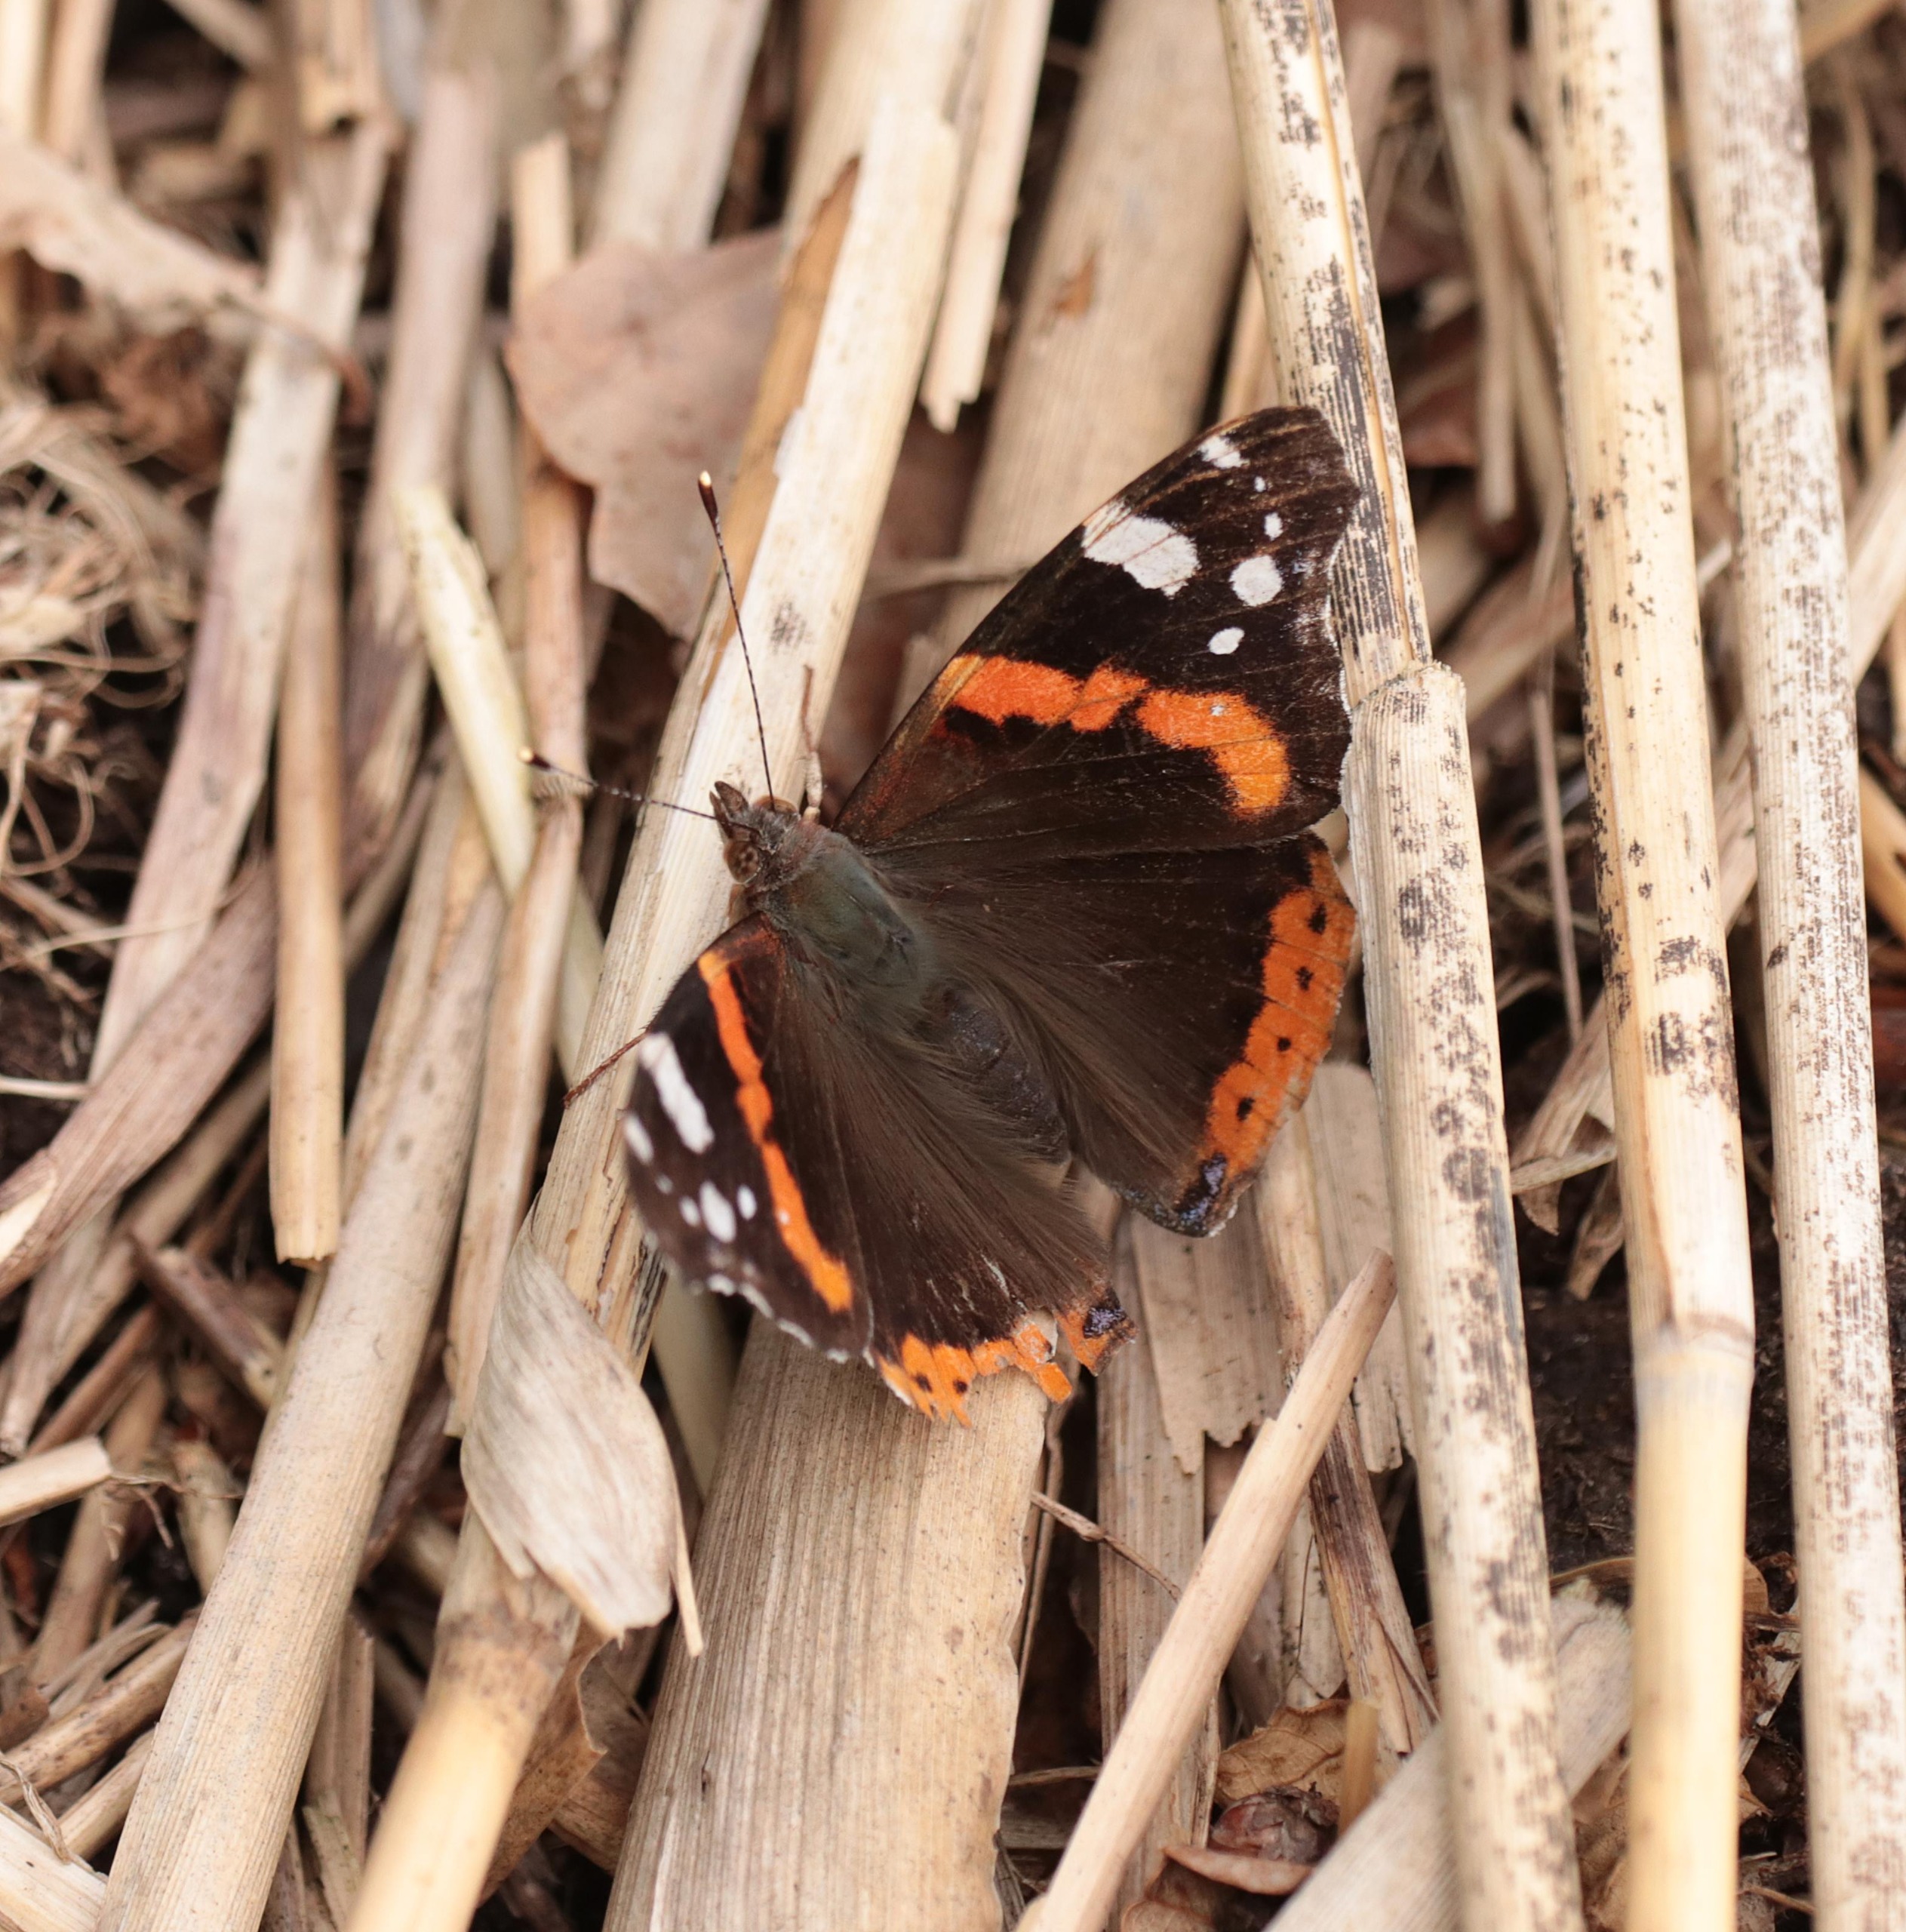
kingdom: Animalia
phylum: Arthropoda
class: Insecta
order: Lepidoptera
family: Nymphalidae
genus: Vanessa
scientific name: Vanessa atalanta
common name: Admiral
